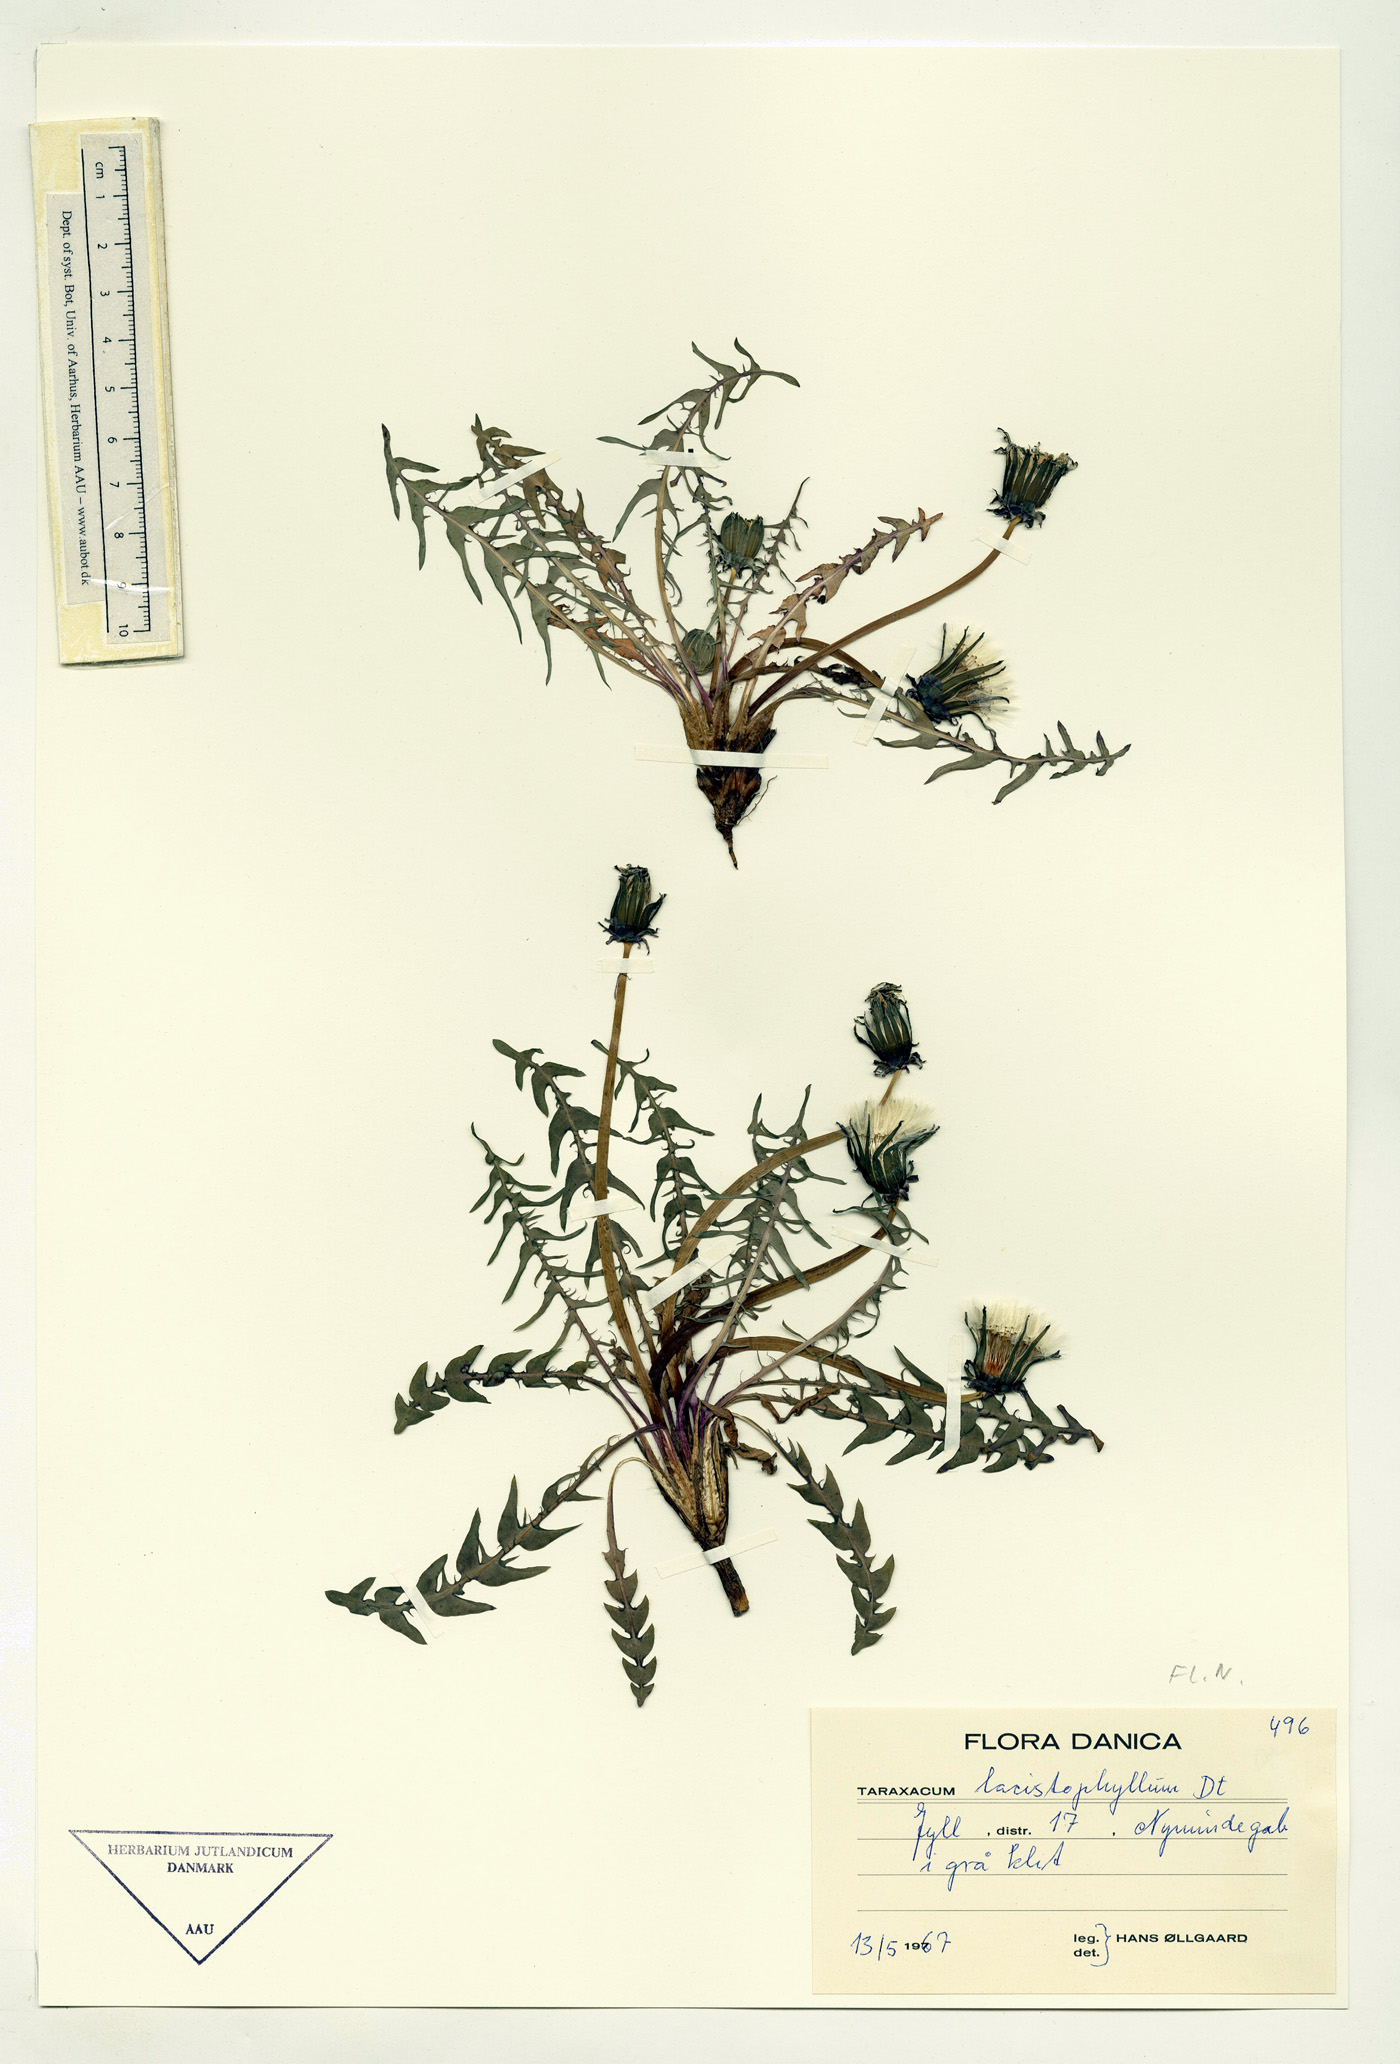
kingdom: Plantae
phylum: Tracheophyta
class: Magnoliopsida
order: Asterales
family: Asteraceae
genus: Taraxacum
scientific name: Taraxacum lacistophyllum
